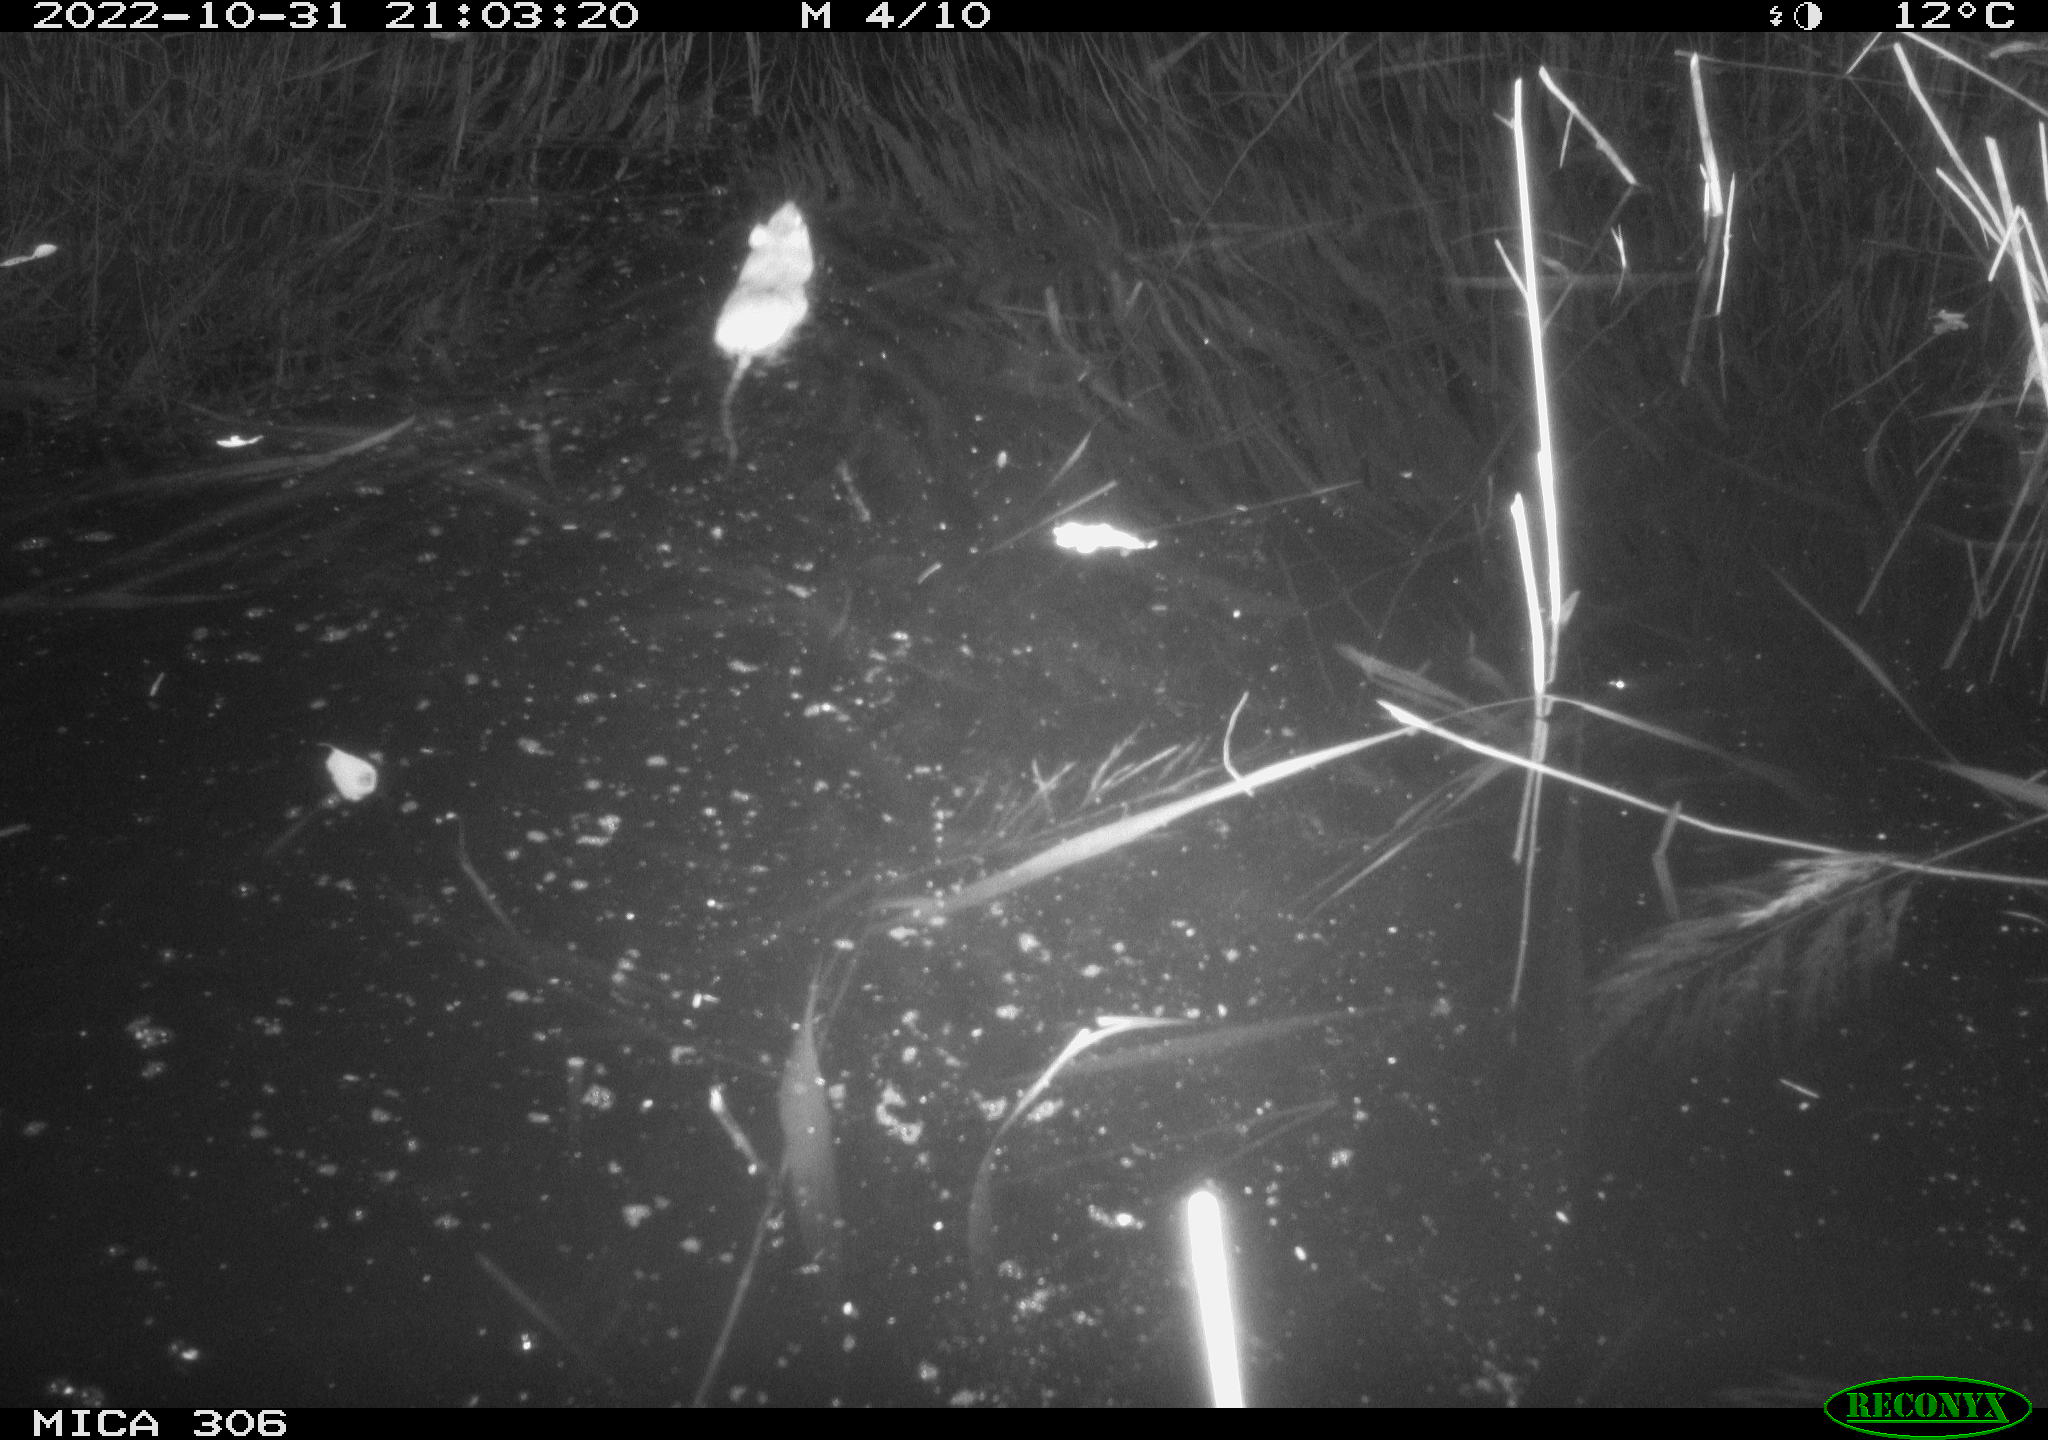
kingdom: Animalia
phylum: Chordata
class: Mammalia
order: Rodentia
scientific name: Rodentia
